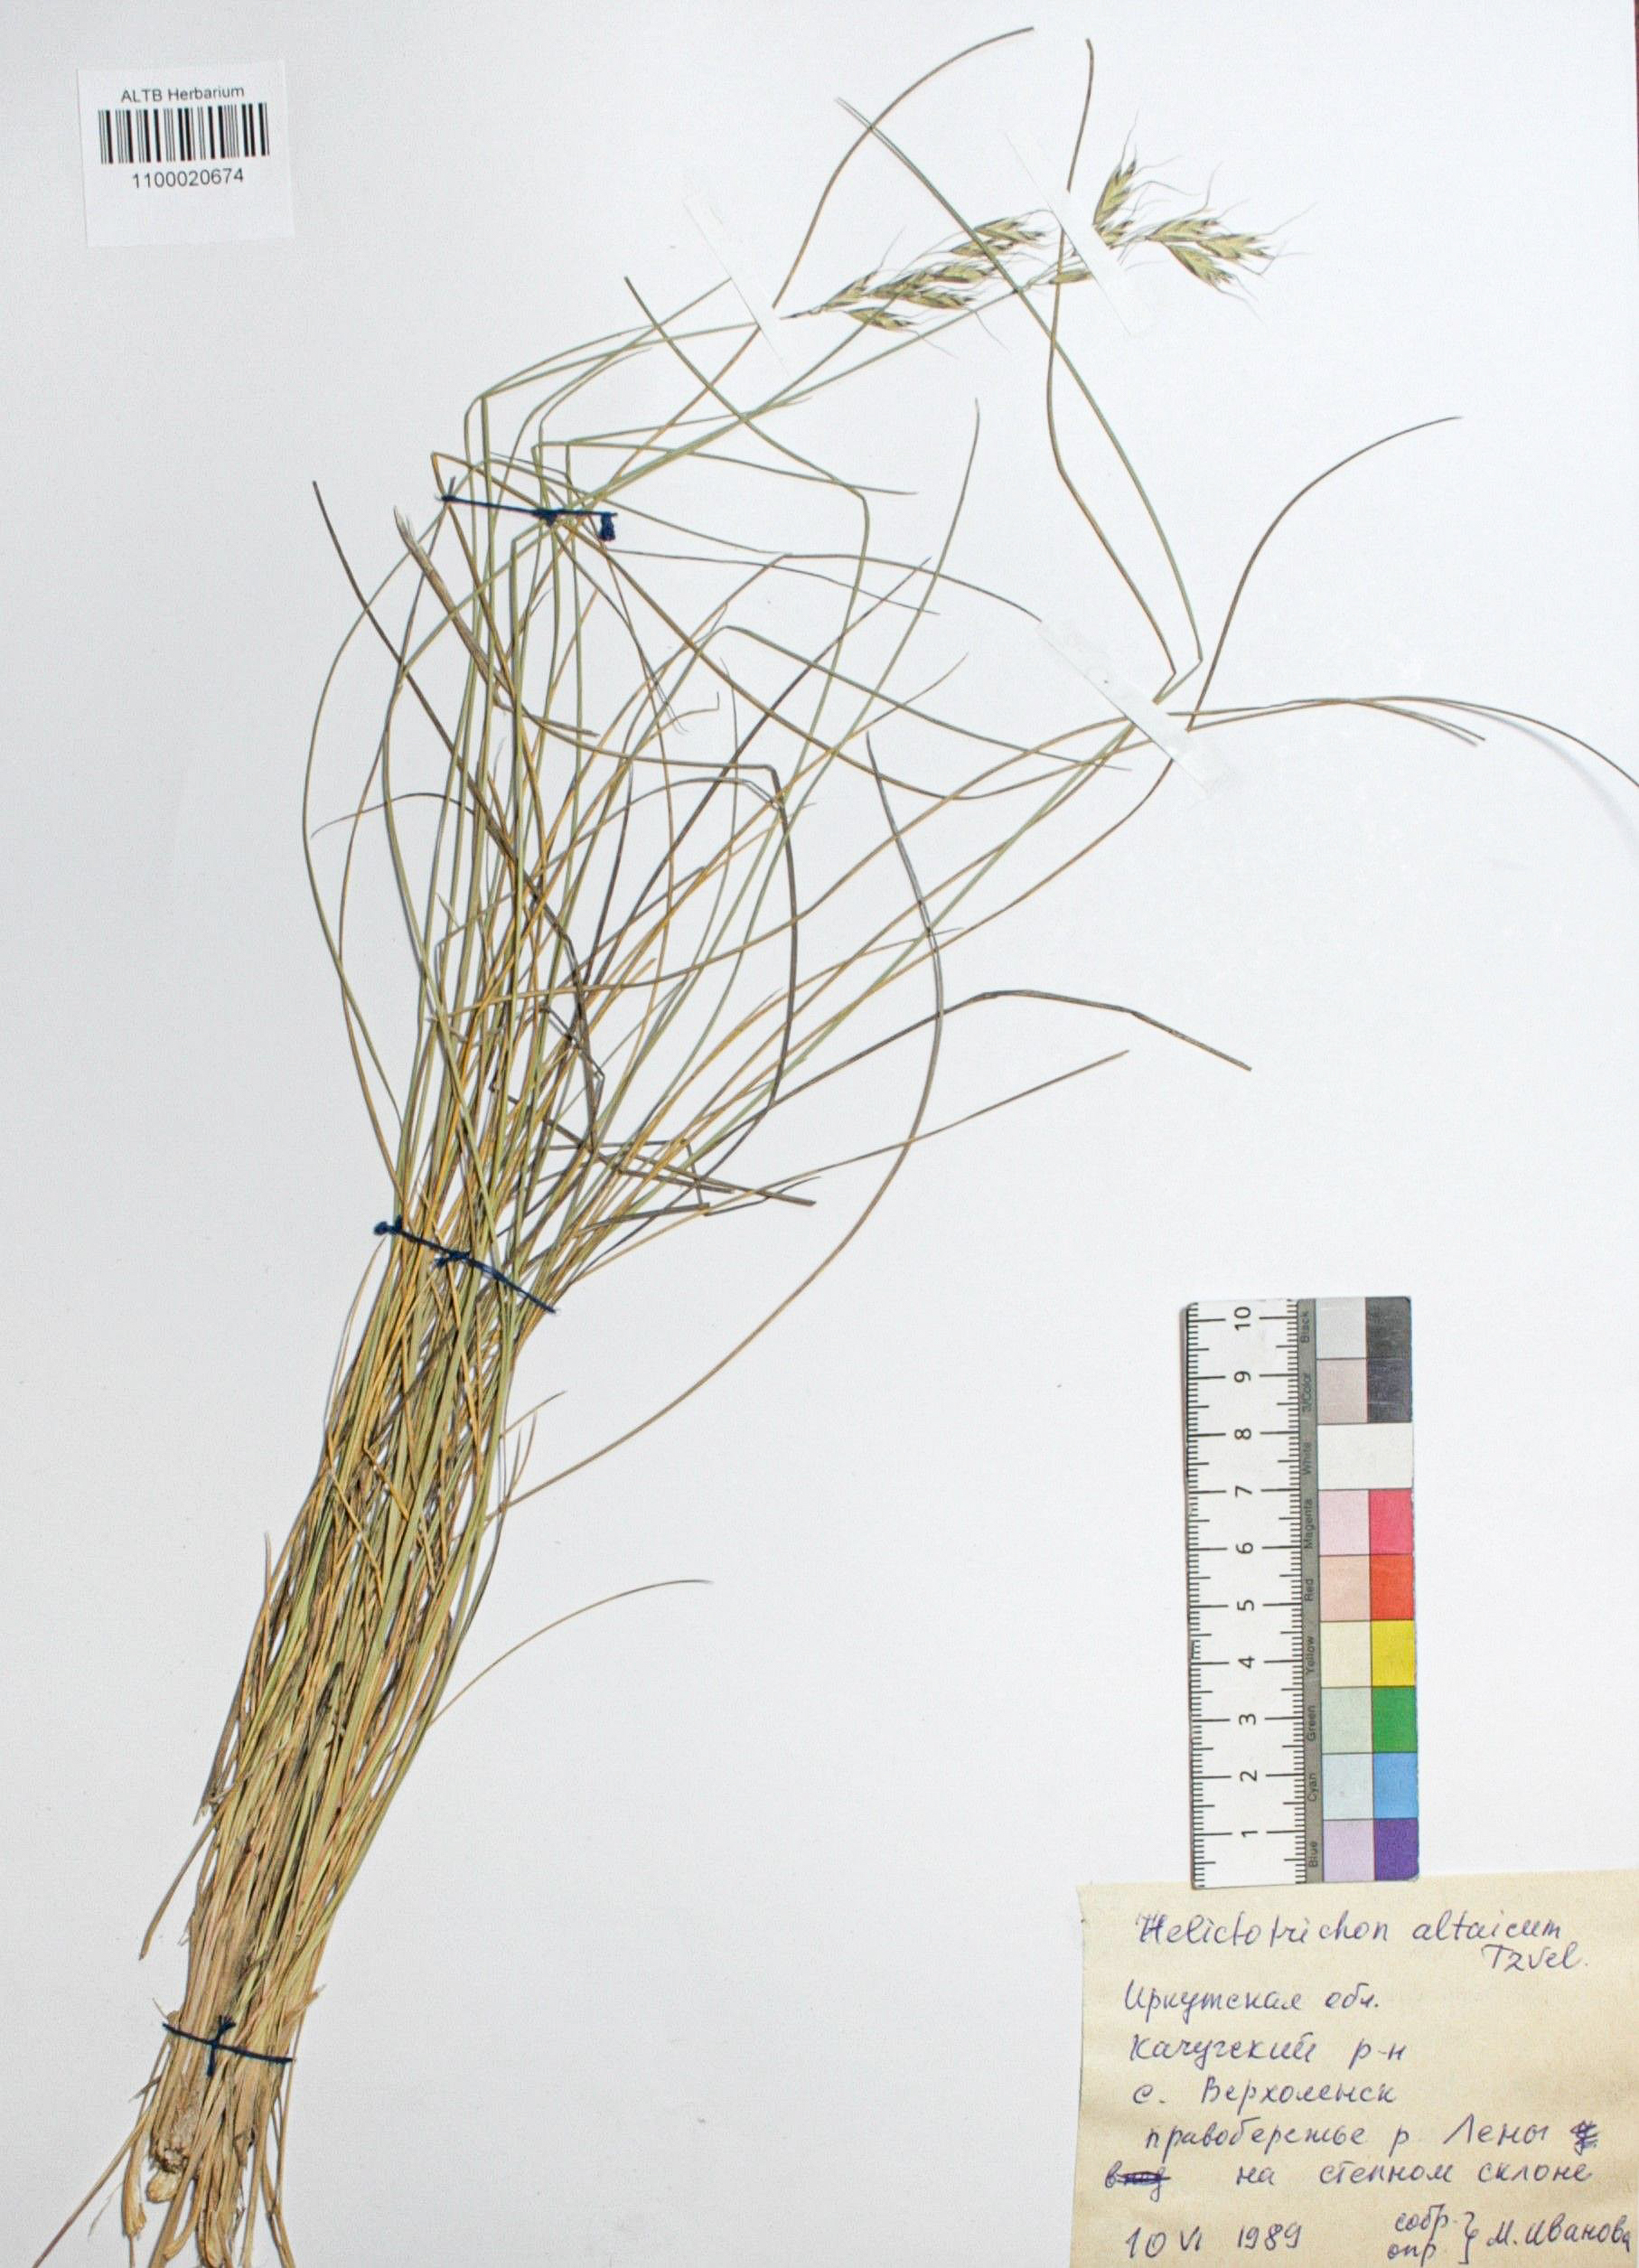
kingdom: Plantae
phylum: Tracheophyta
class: Liliopsida
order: Poales
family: Poaceae
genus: Helictotrichon
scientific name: Helictotrichon desertorum
